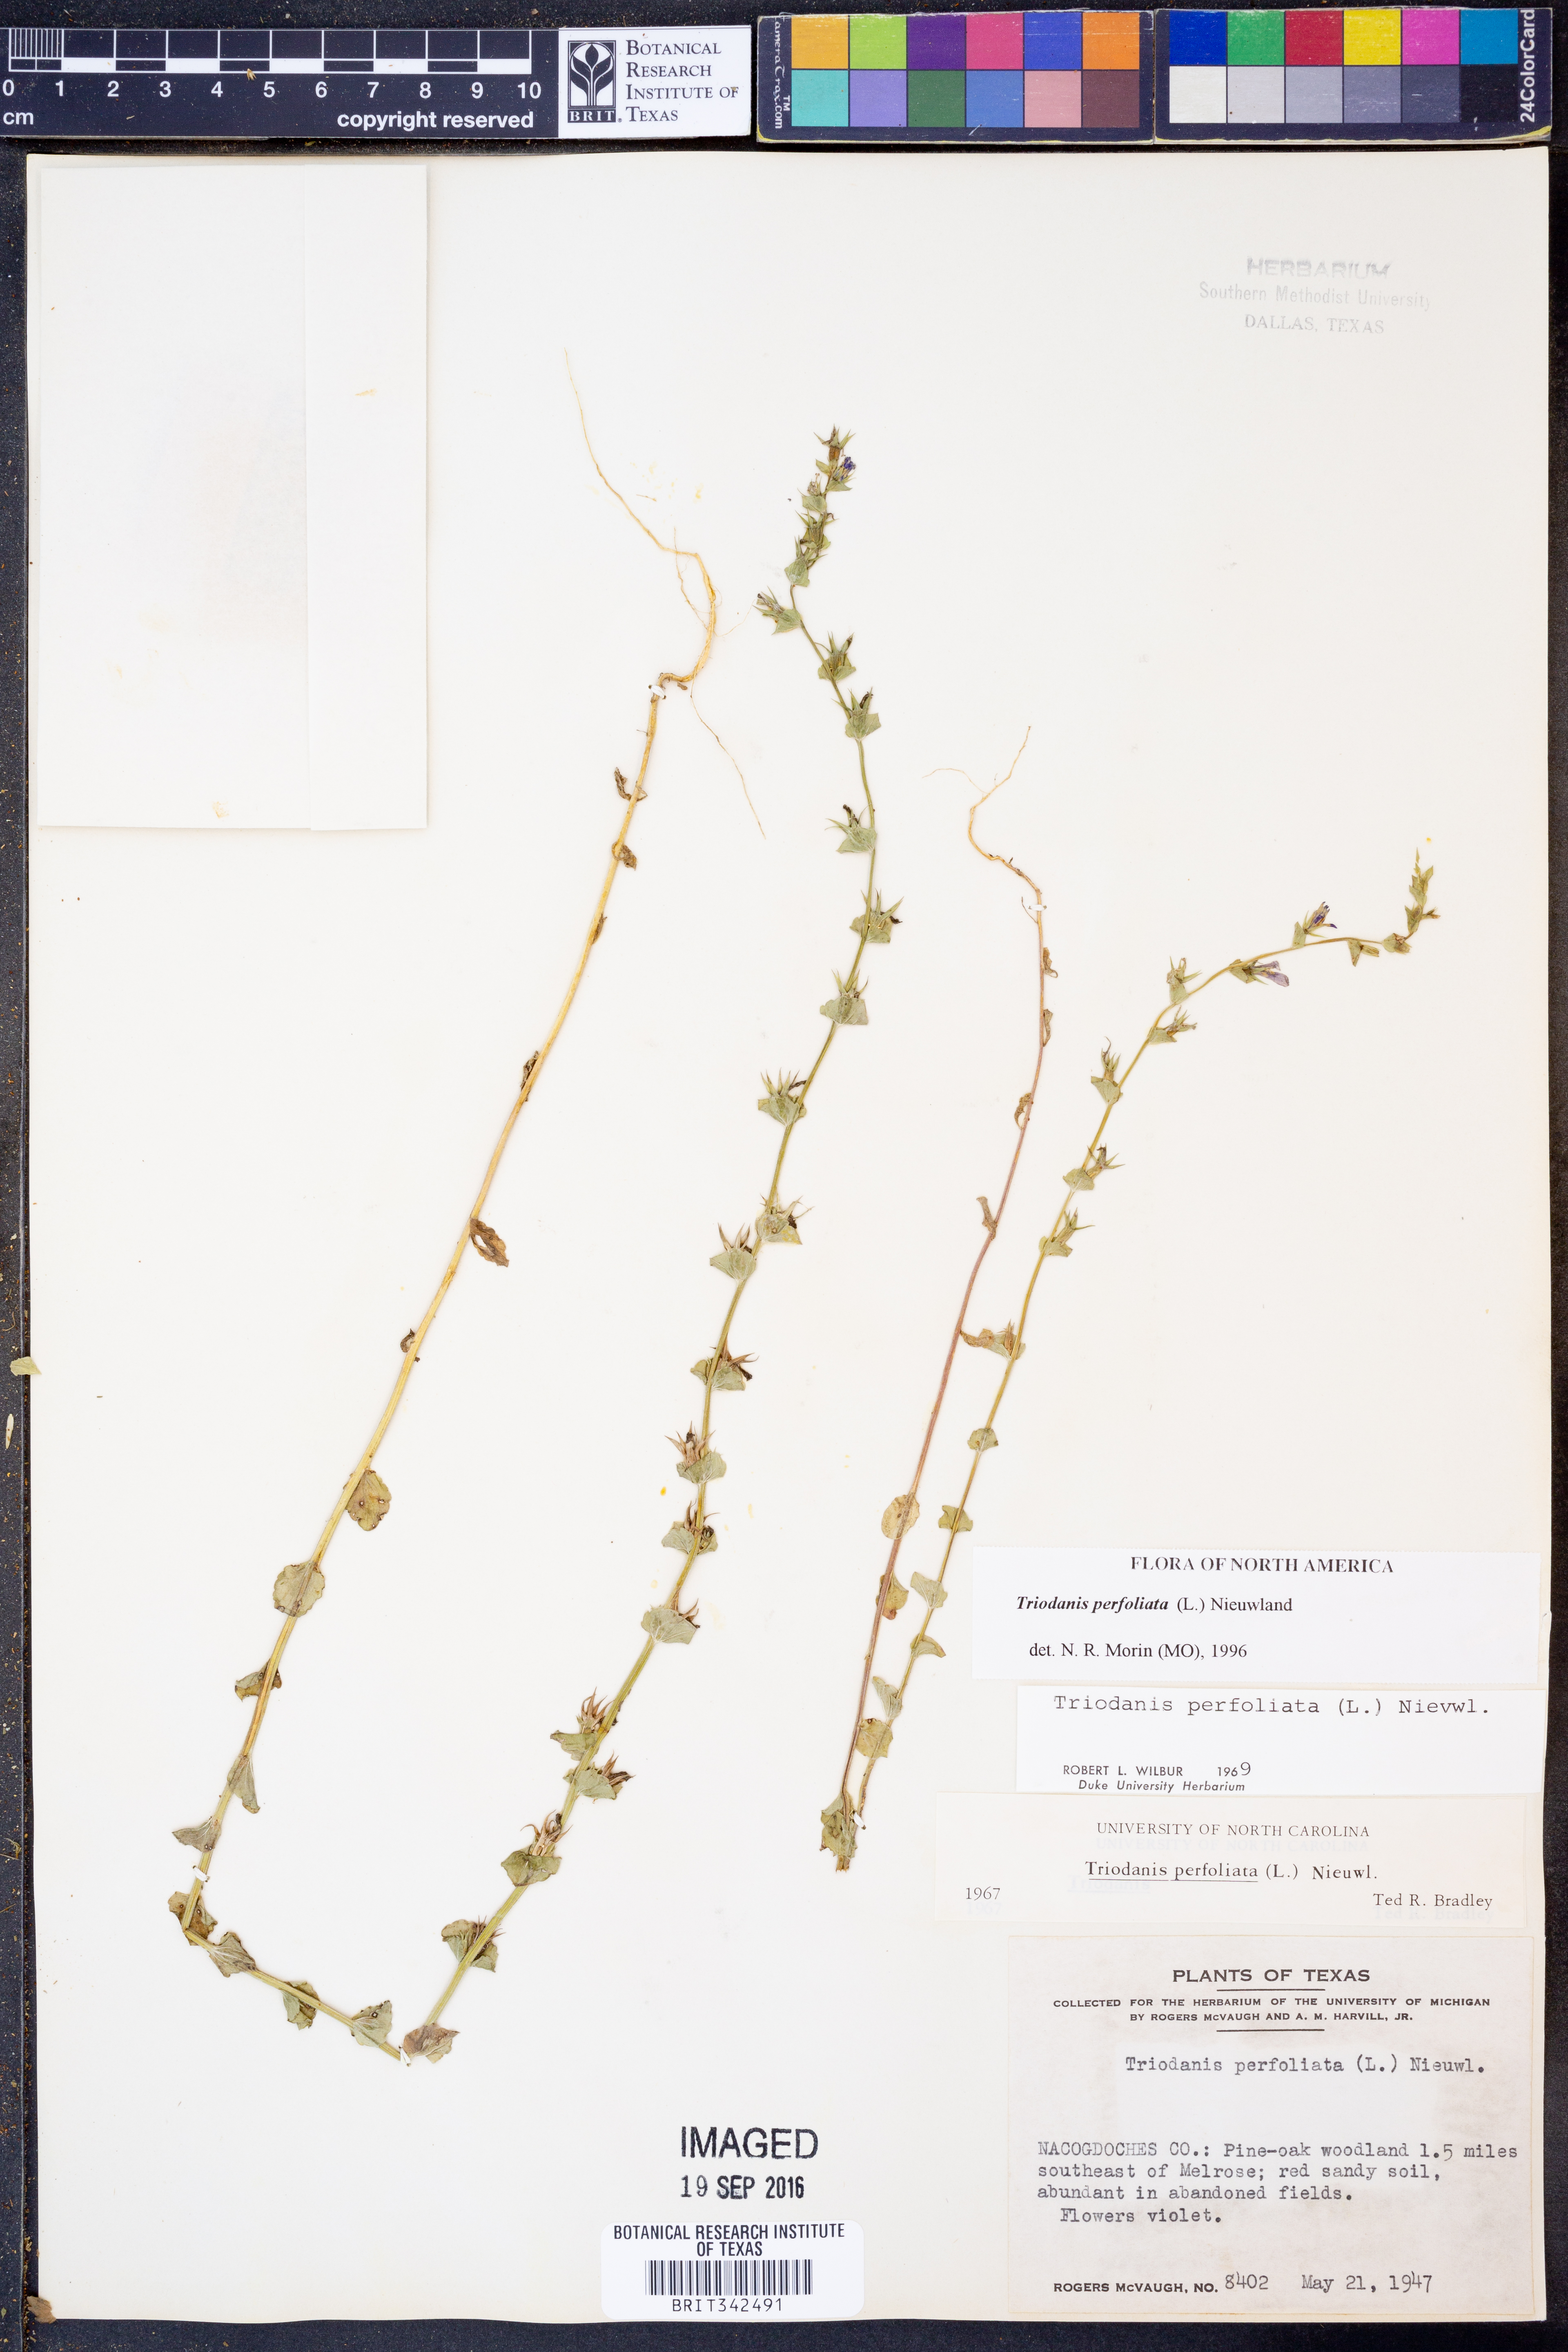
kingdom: Plantae
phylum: Tracheophyta
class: Magnoliopsida
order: Asterales
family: Campanulaceae
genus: Triodanis
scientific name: Triodanis perfoliata
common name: Clasping venus' looking-glass
